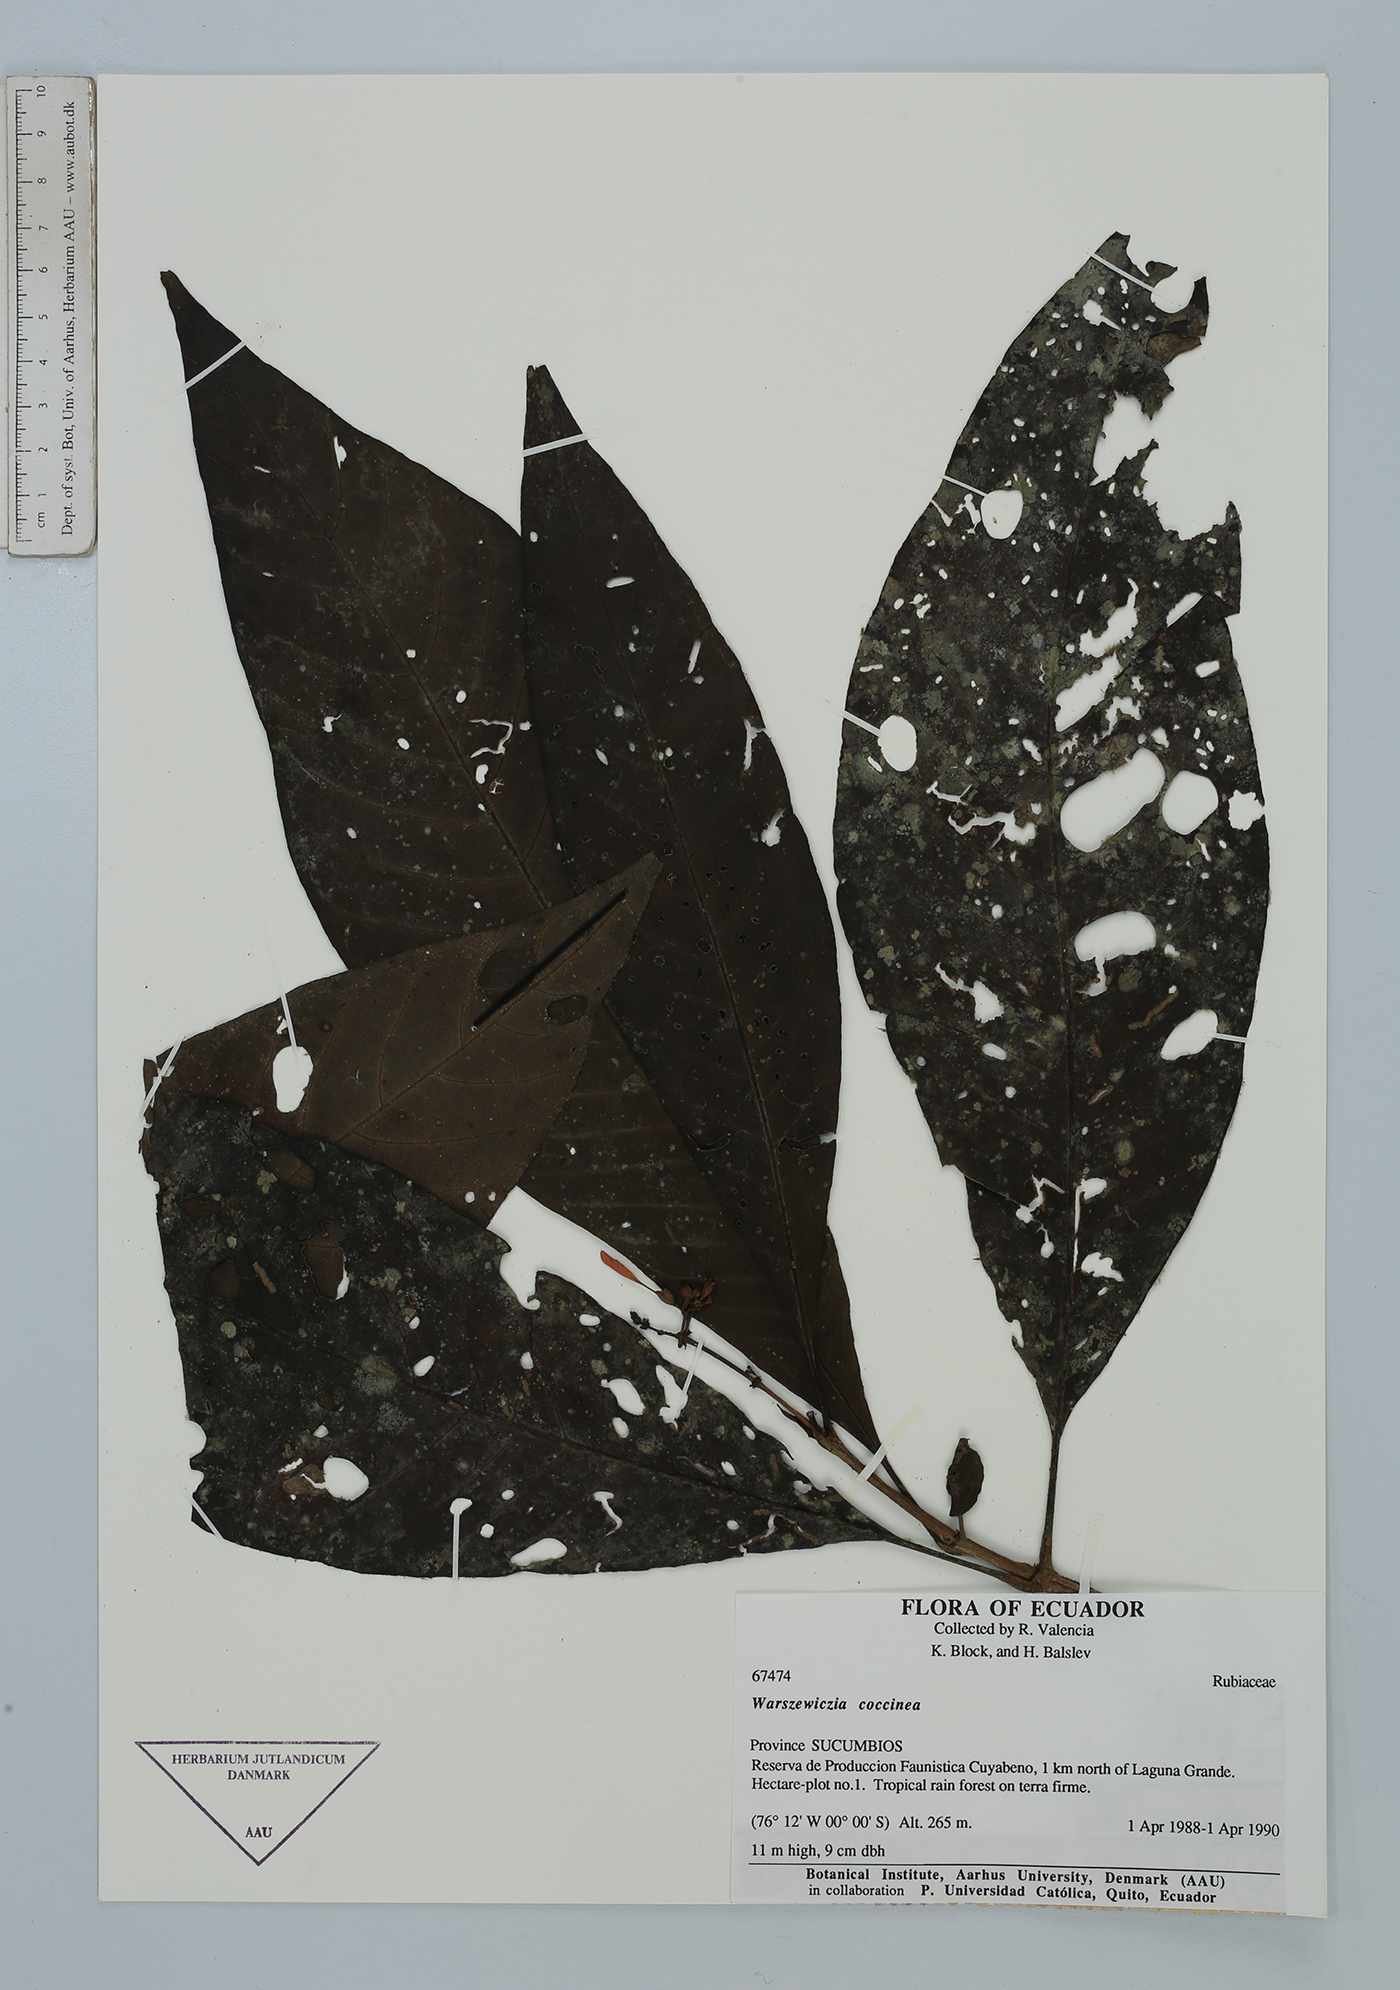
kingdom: Plantae
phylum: Tracheophyta
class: Magnoliopsida
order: Gentianales
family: Rubiaceae
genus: Warszewiczia
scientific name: Warszewiczia coccinea
